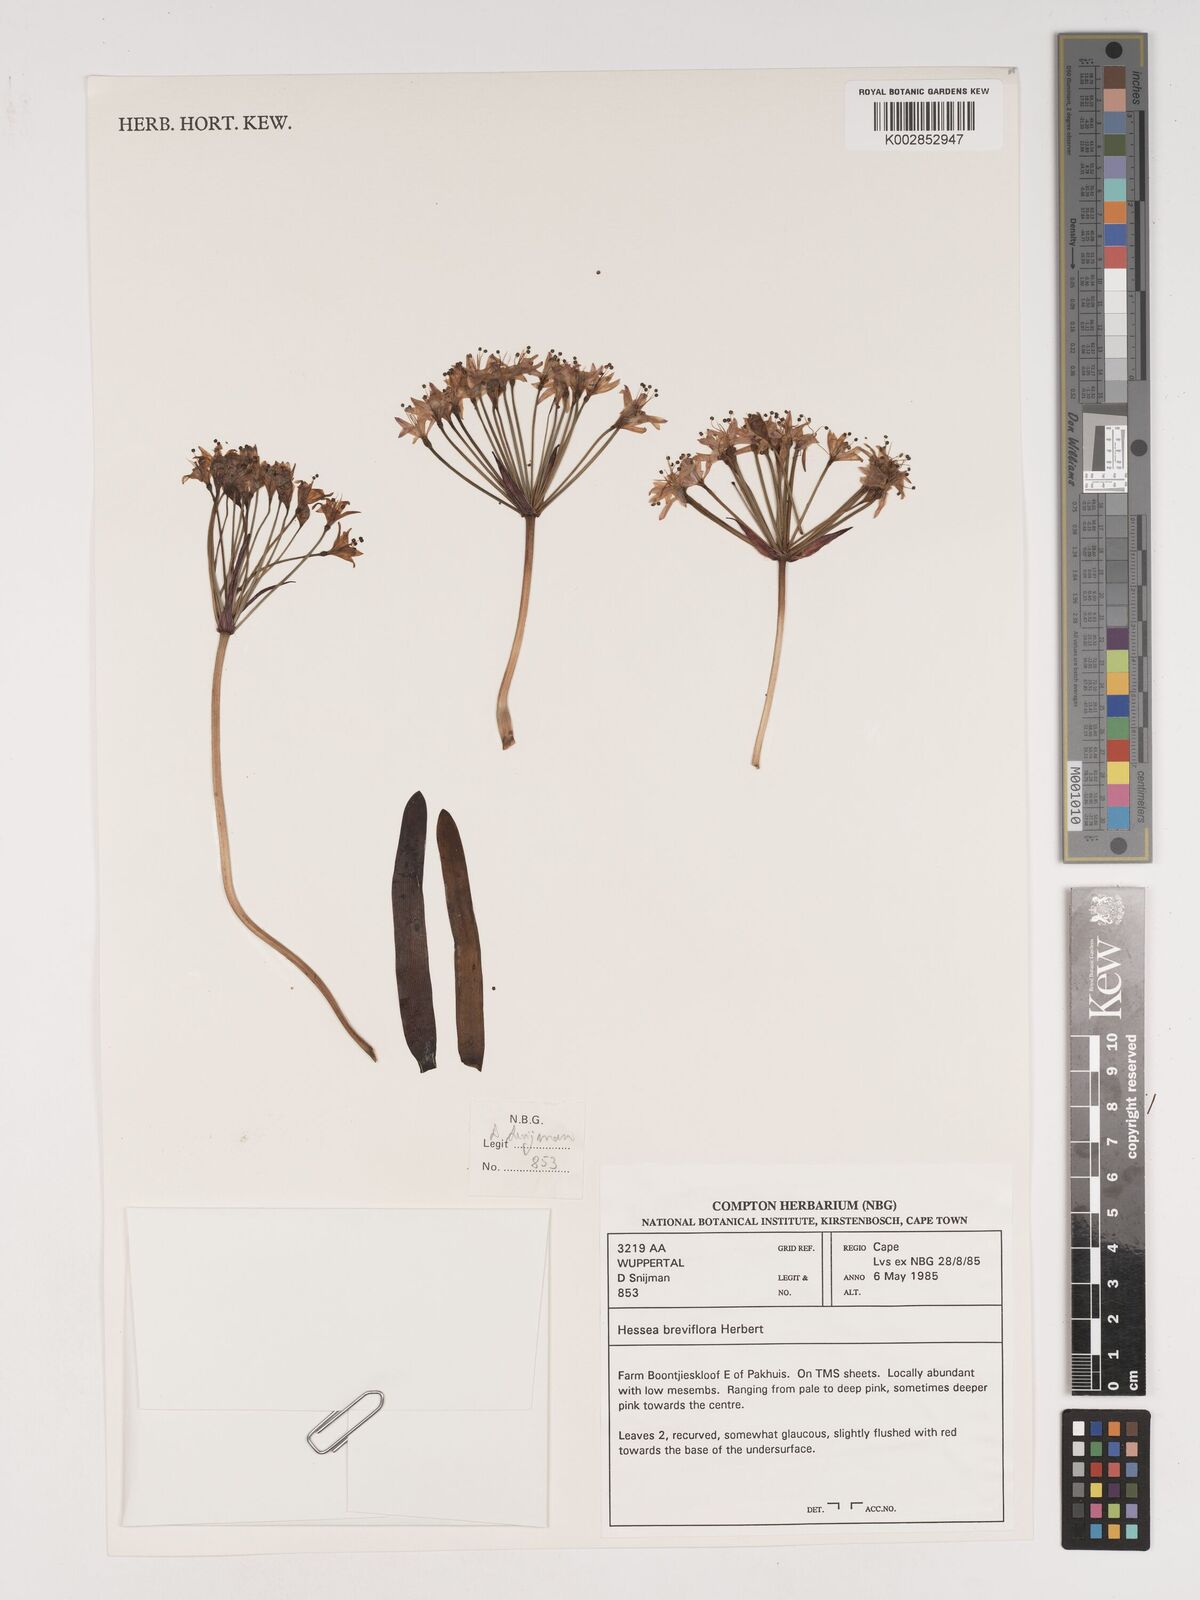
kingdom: Plantae
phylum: Tracheophyta
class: Liliopsida
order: Asparagales
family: Amaryllidaceae
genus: Hessea
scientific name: Hessea breviflora
